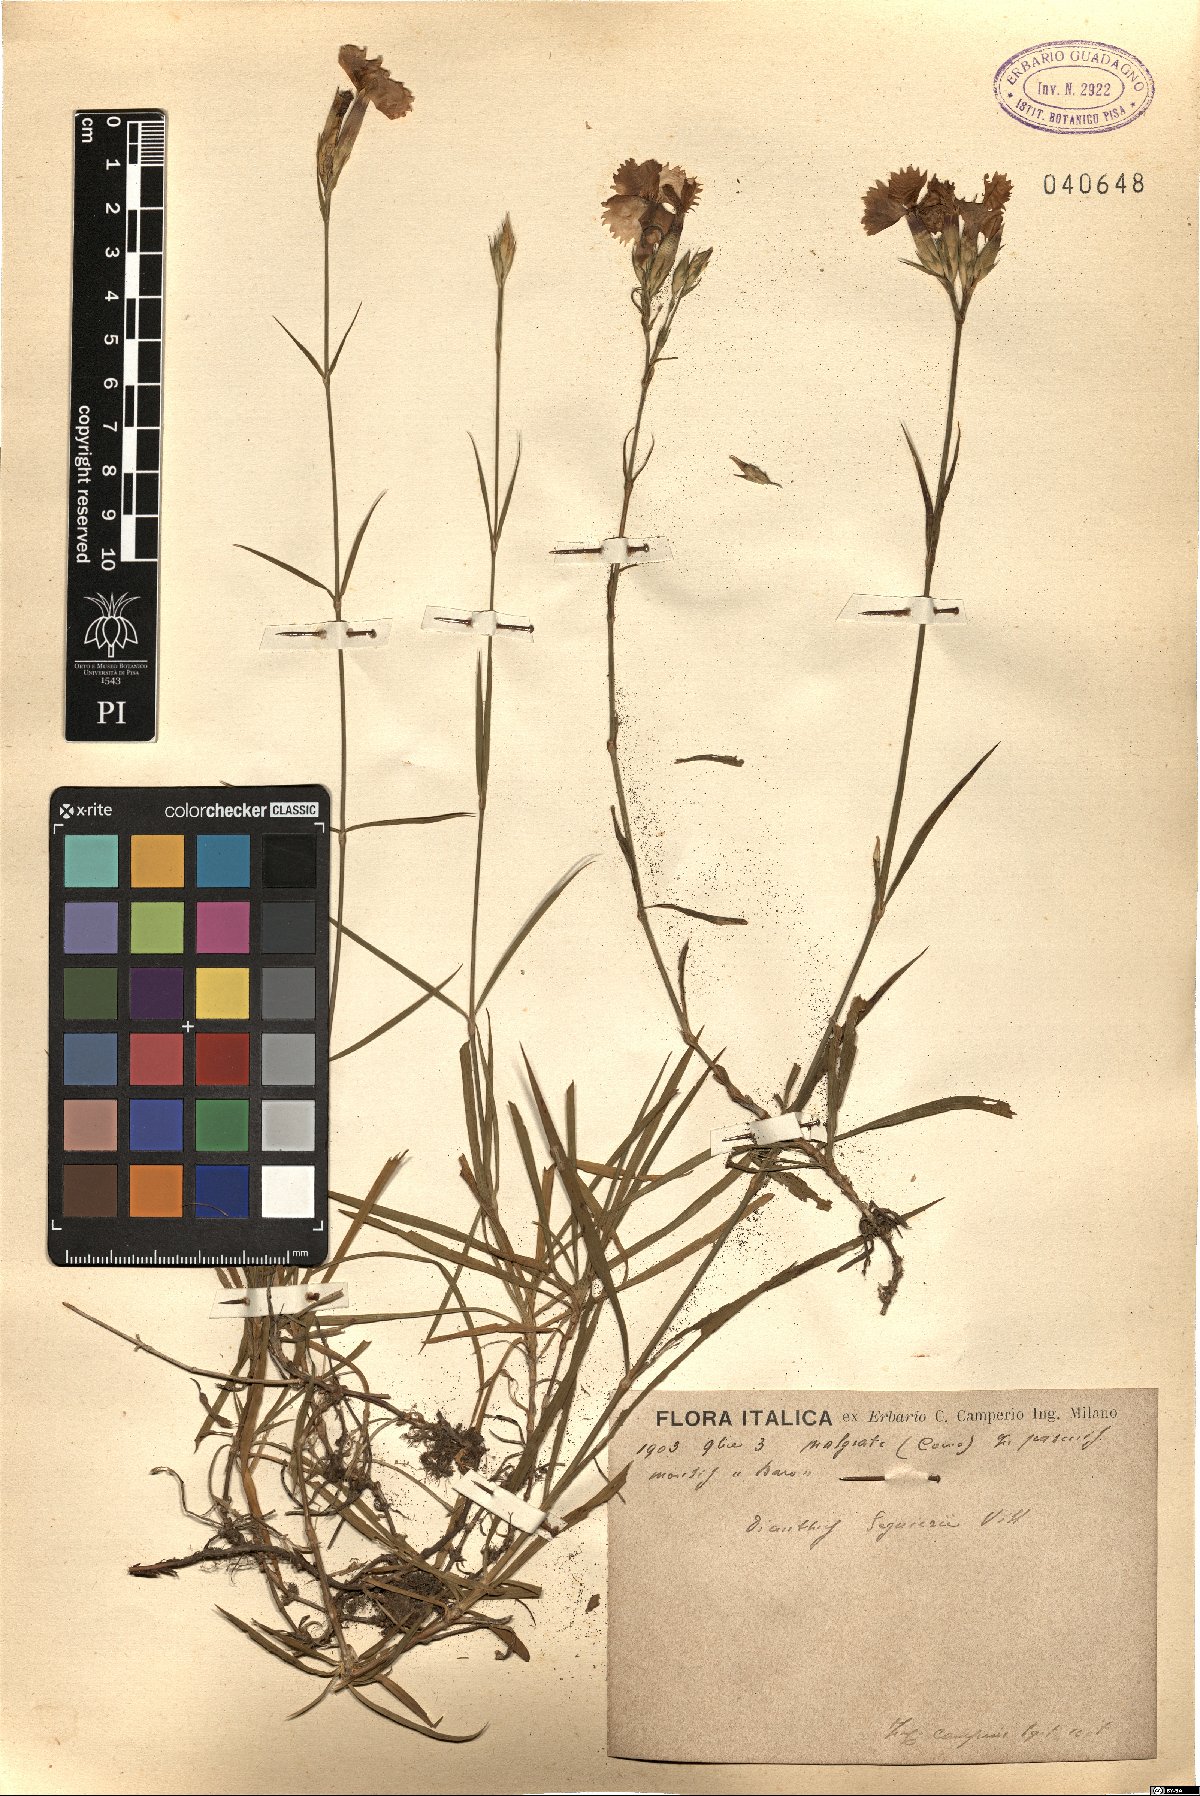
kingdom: Plantae
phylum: Tracheophyta
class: Magnoliopsida
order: Caryophyllales
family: Caryophyllaceae
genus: Dianthus
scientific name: Dianthus seguieri
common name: Ragged pink
